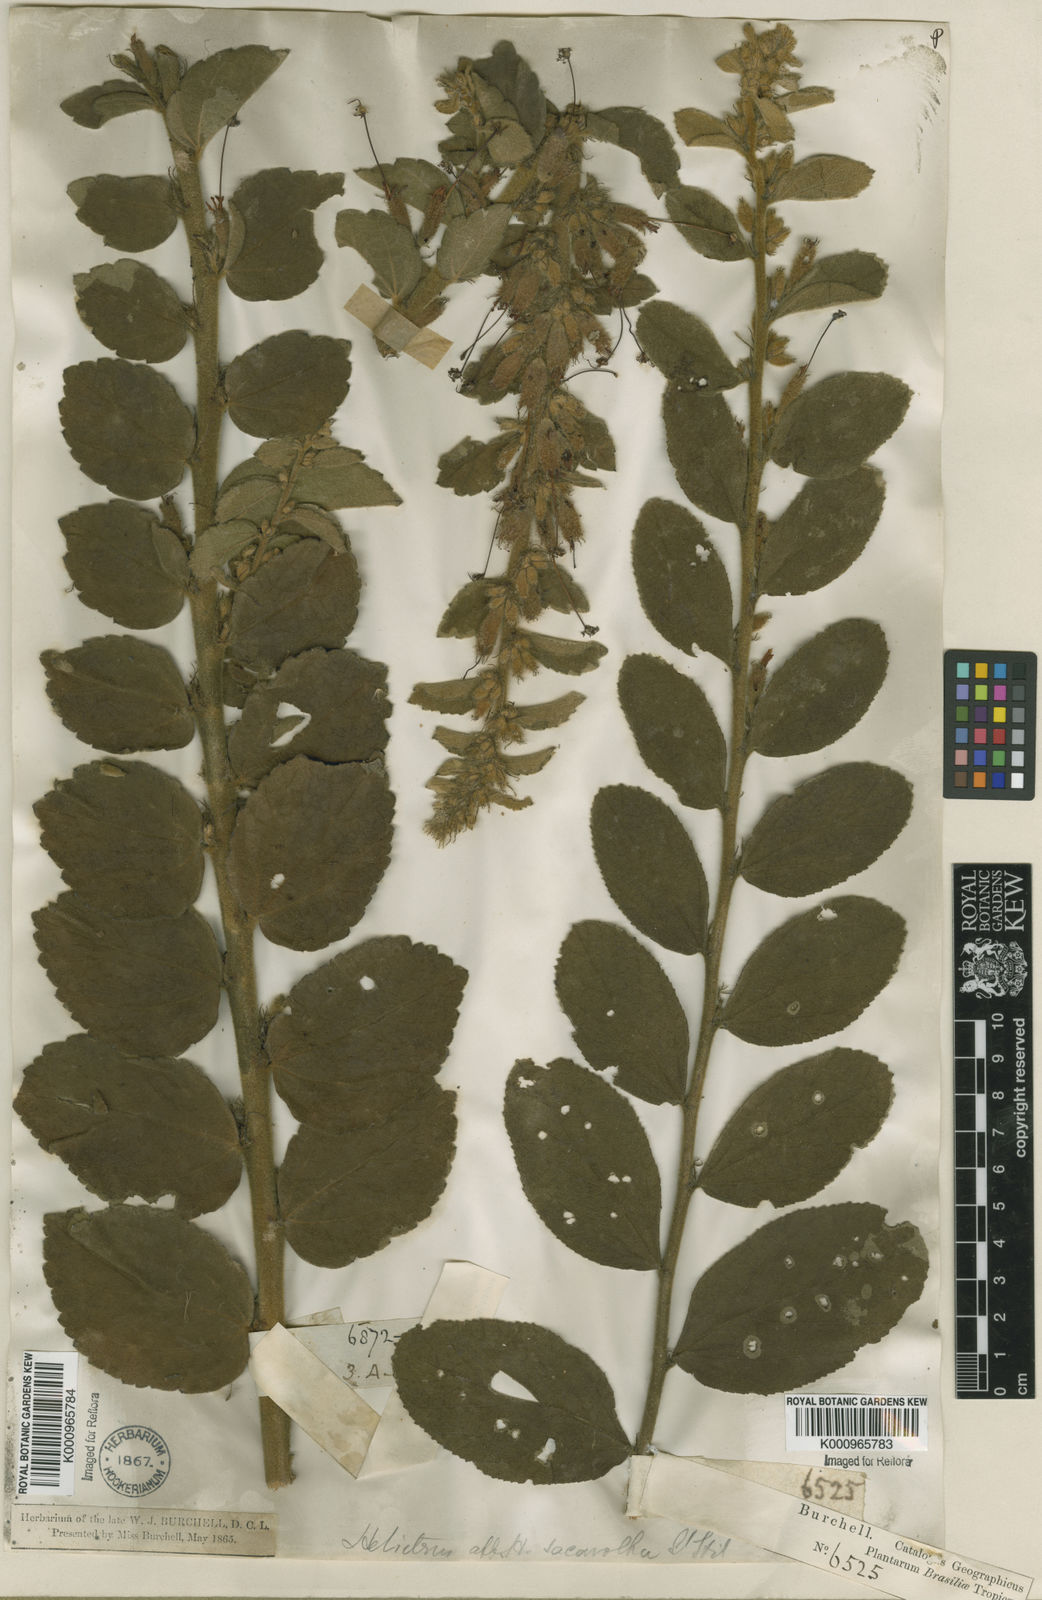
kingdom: Plantae
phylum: Tracheophyta
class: Magnoliopsida
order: Malvales
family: Malvaceae
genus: Helicteres
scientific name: Helicteres
